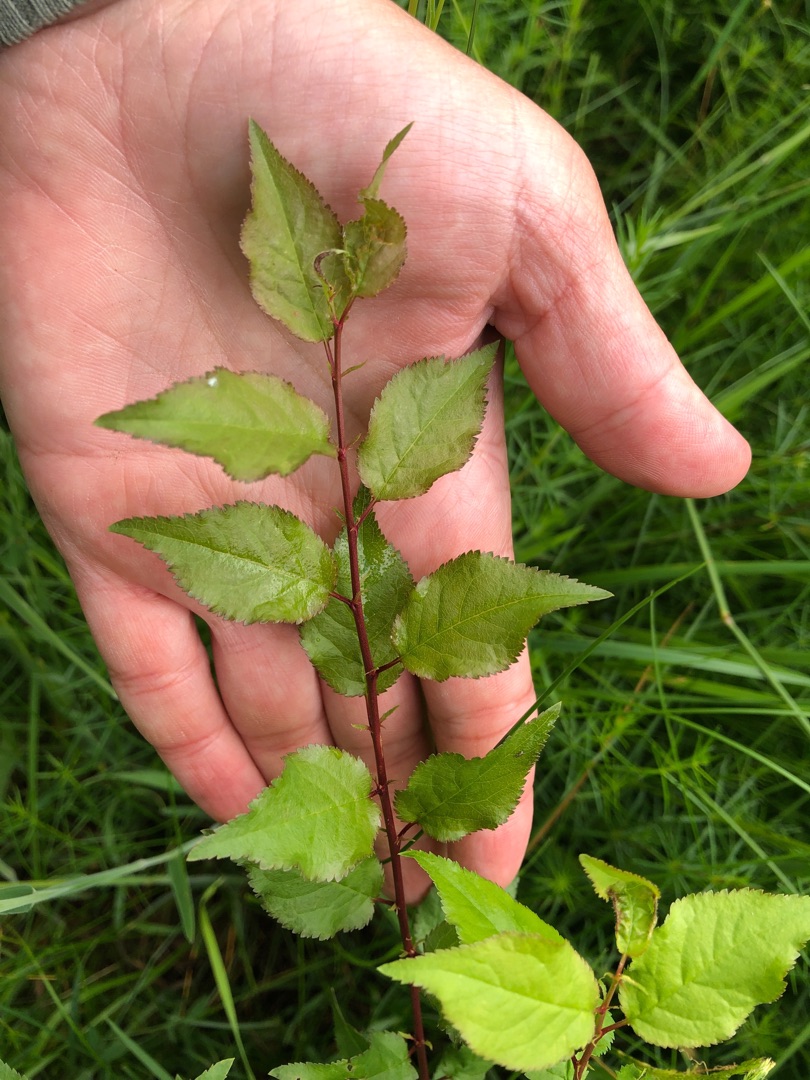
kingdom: Plantae
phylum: Tracheophyta
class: Magnoliopsida
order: Rosales
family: Rosaceae
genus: Prunus
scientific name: Prunus cerasifera
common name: Mirabel
